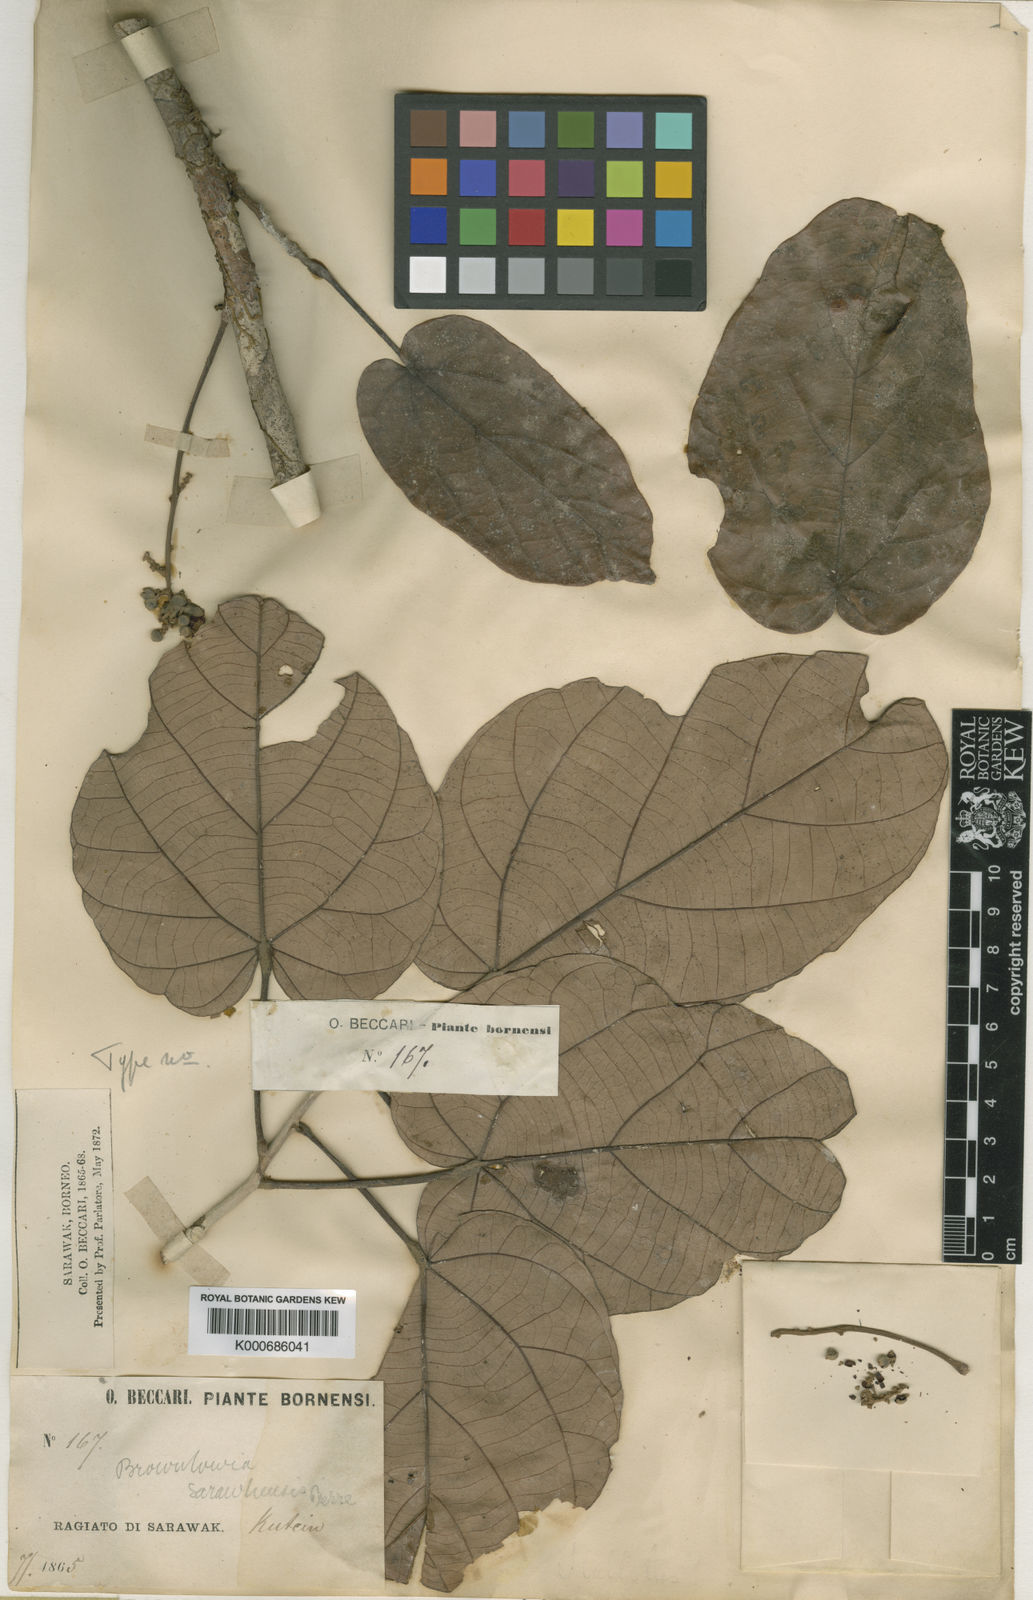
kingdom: Plantae
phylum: Tracheophyta
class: Magnoliopsida
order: Malvales
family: Malvaceae
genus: Brownlowia
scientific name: Brownlowia
